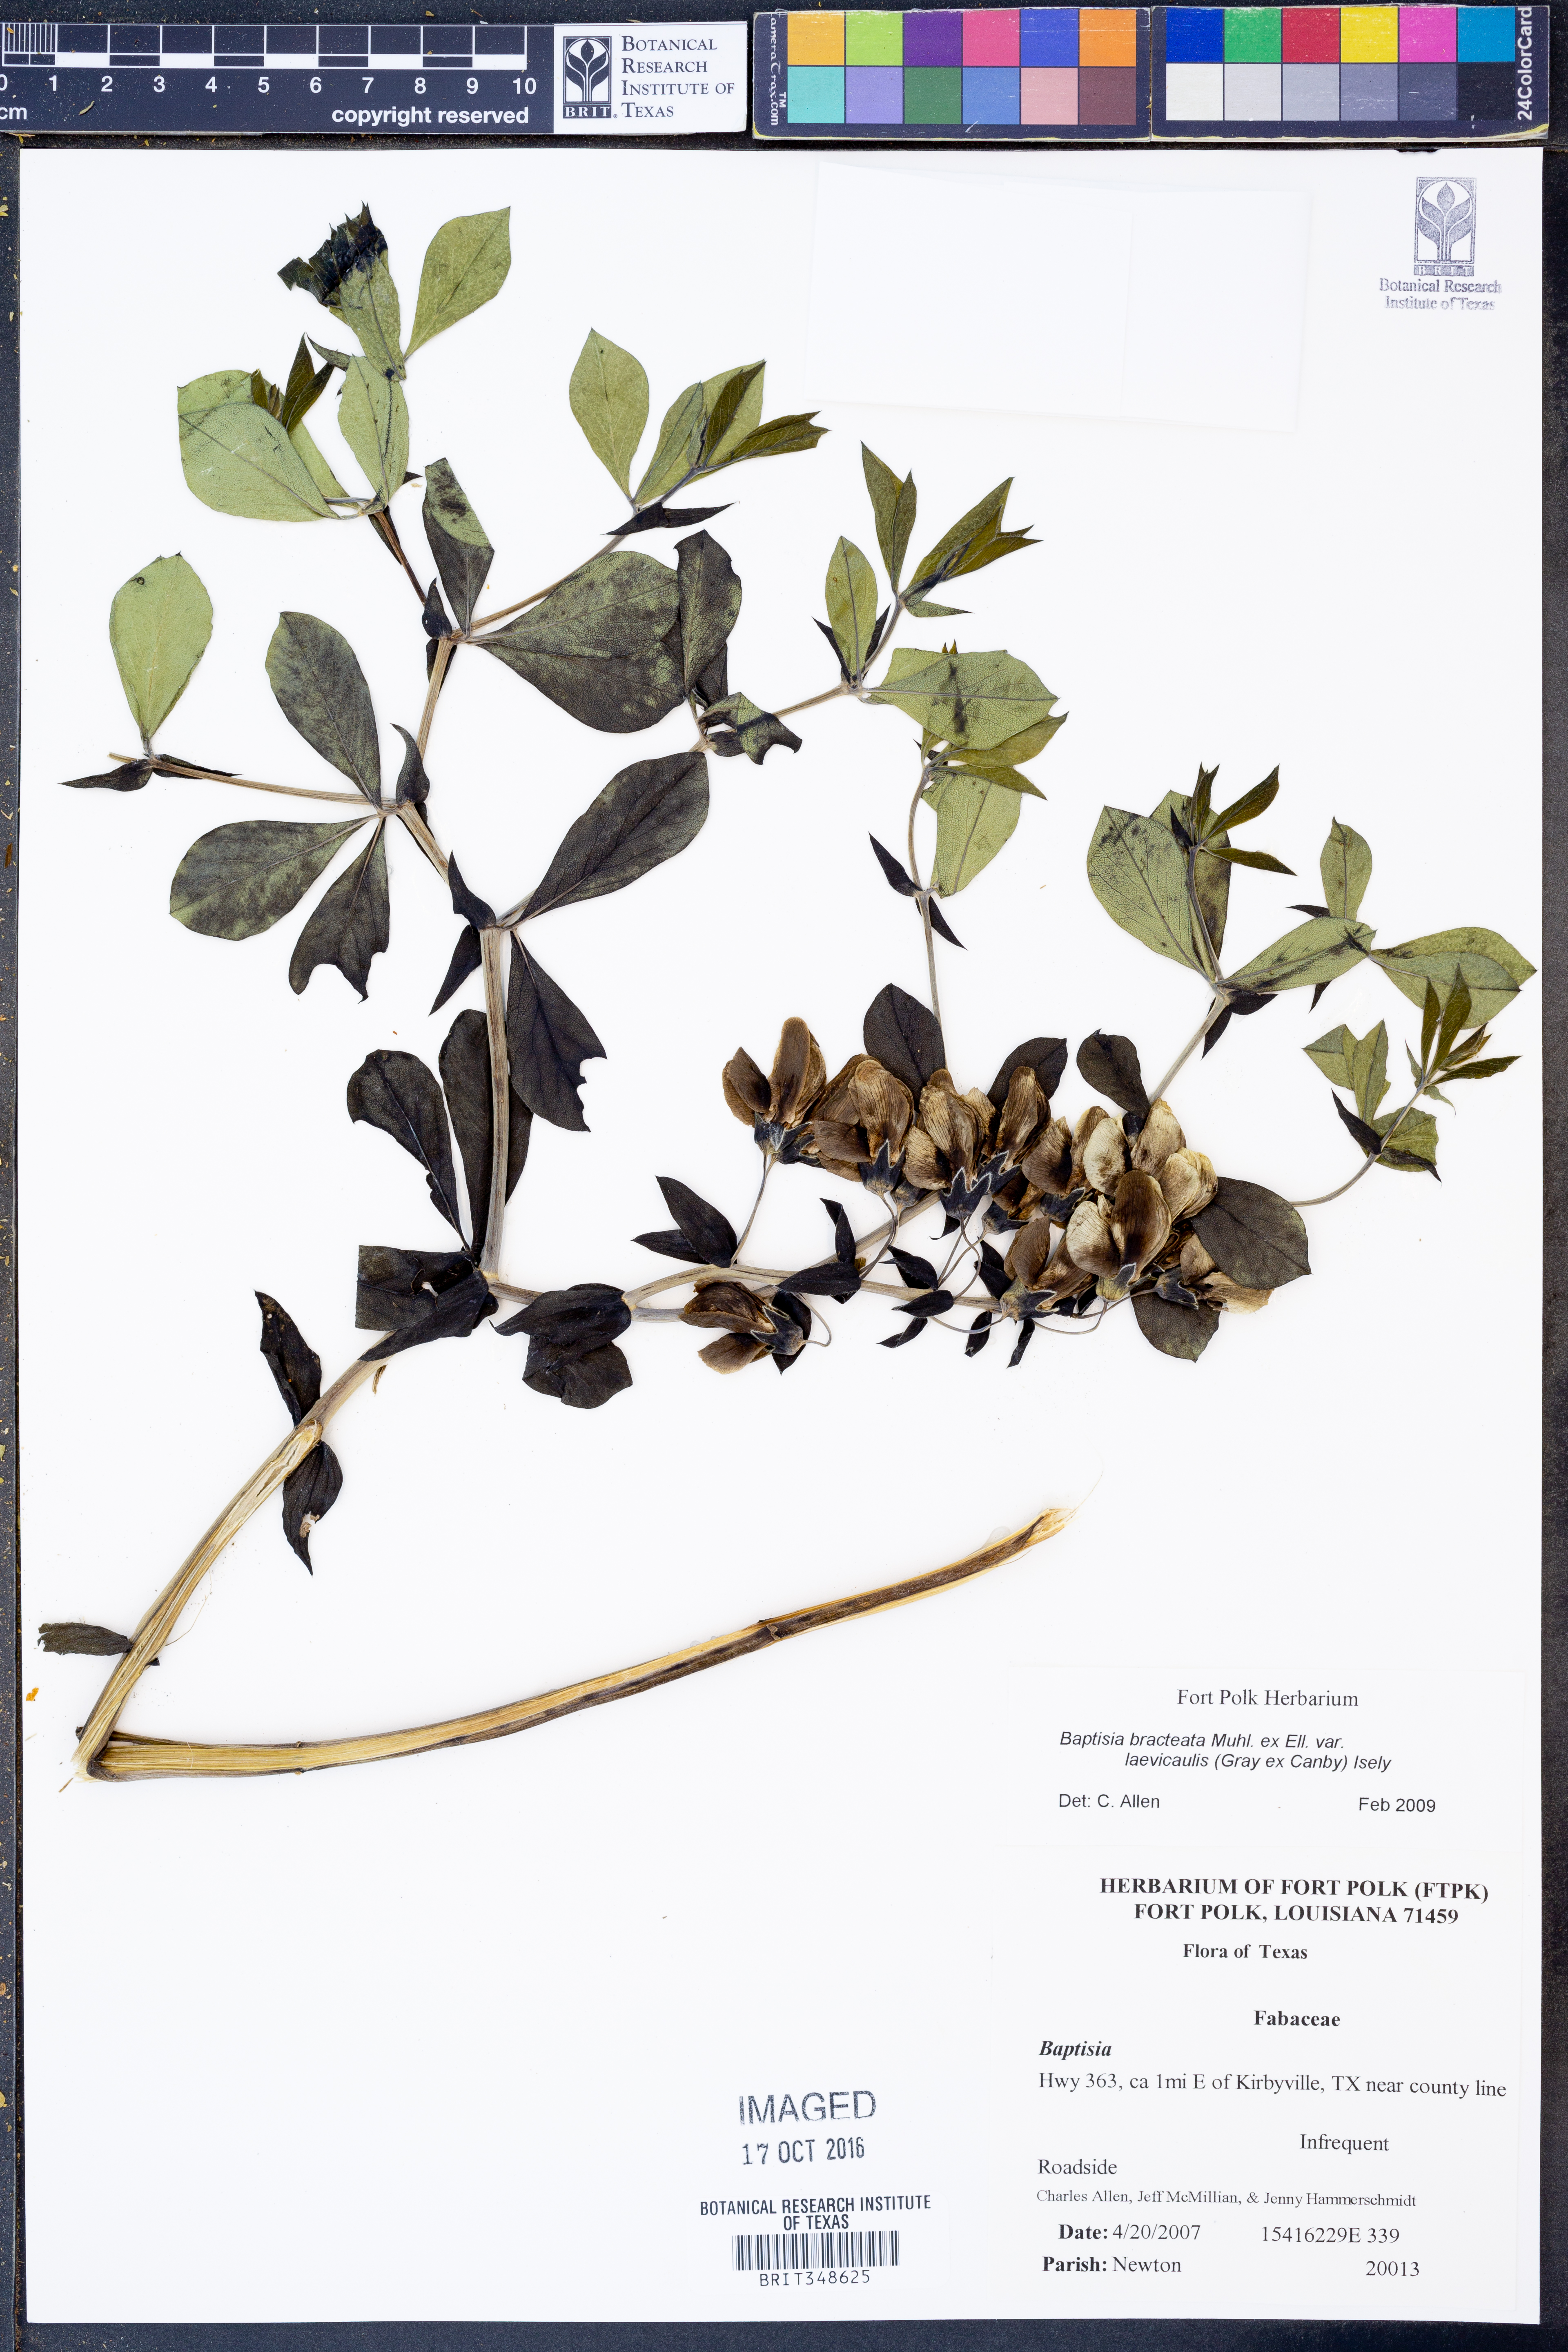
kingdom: Plantae
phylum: Tracheophyta
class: Magnoliopsida
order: Fabales
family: Fabaceae
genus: Baptisia
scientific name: Baptisia bracteata
